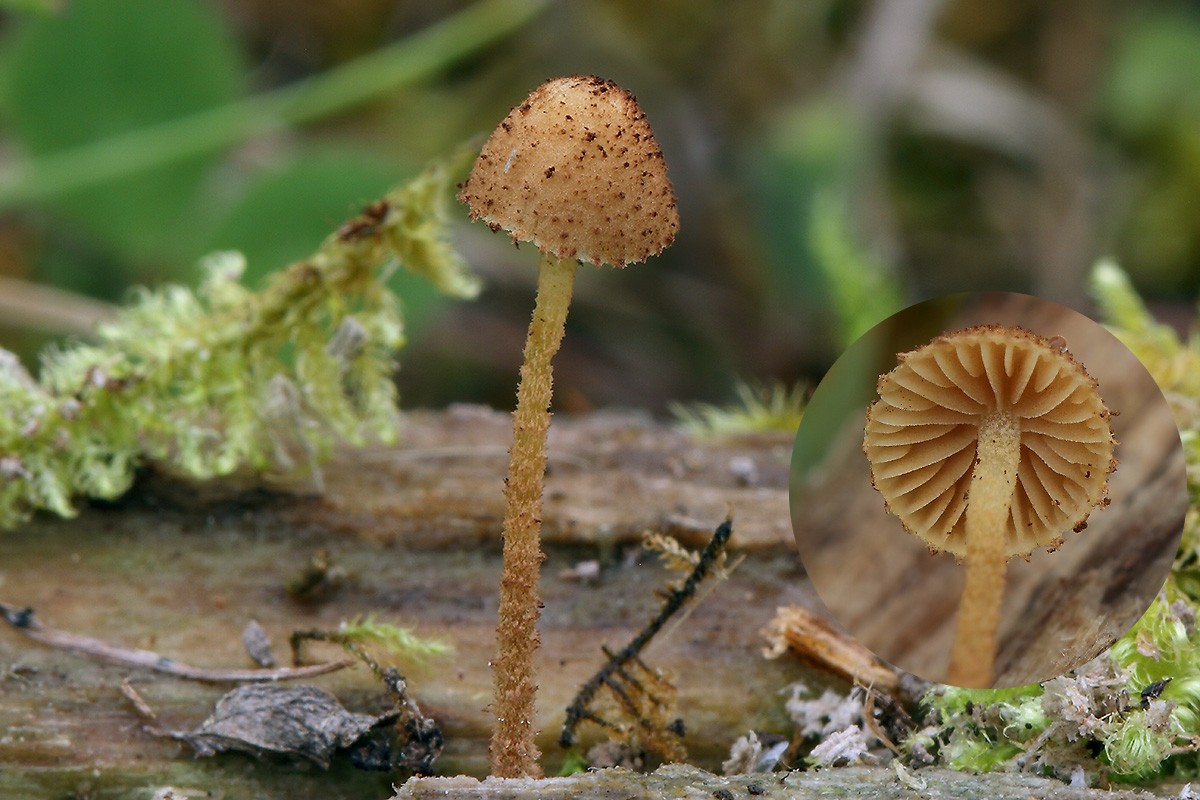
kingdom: Fungi
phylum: Basidiomycota
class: Agaricomycetes
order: Agaricales
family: Tubariaceae
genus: Flammulaster
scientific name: Flammulaster granulosus
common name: gulbrun grynskælhat
